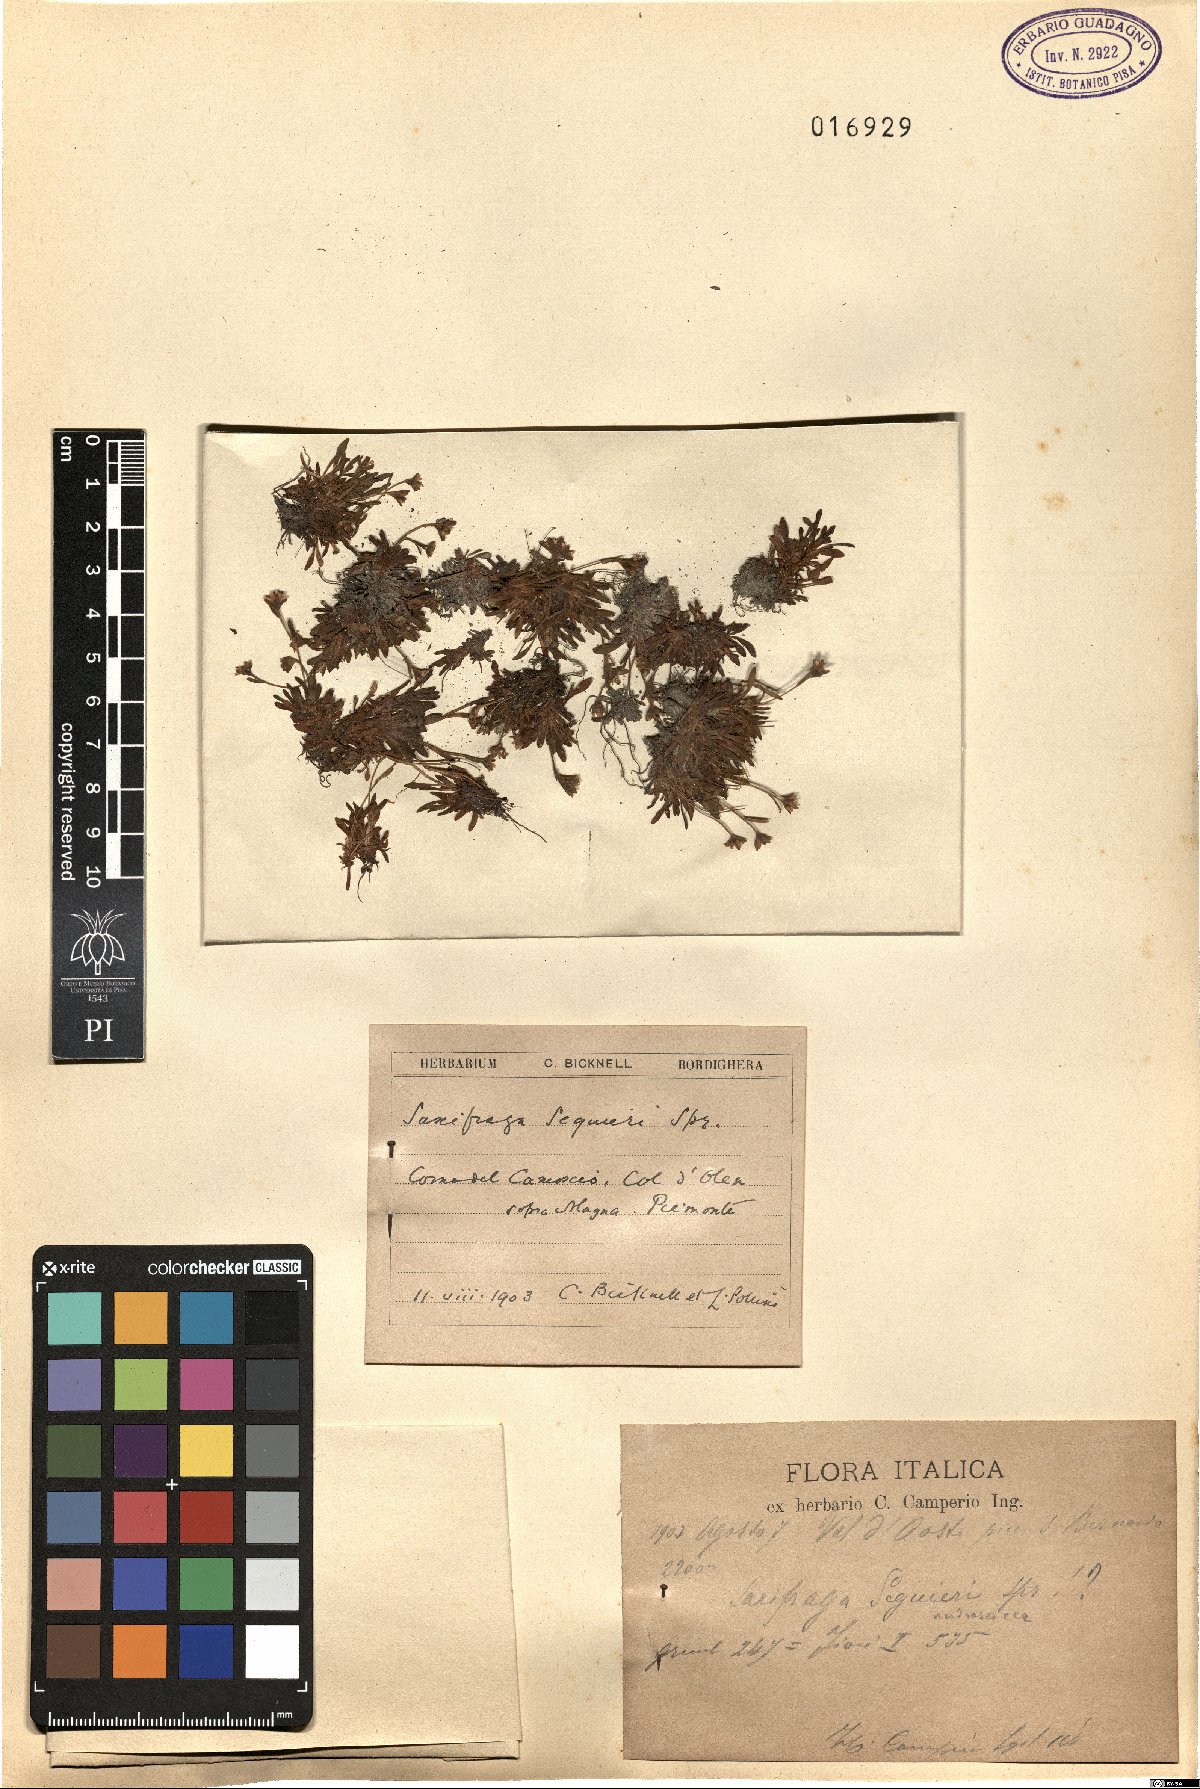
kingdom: Plantae
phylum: Tracheophyta
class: Magnoliopsida
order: Saxifragales
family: Saxifragaceae
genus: Saxifraga
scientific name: Saxifraga seguieri
